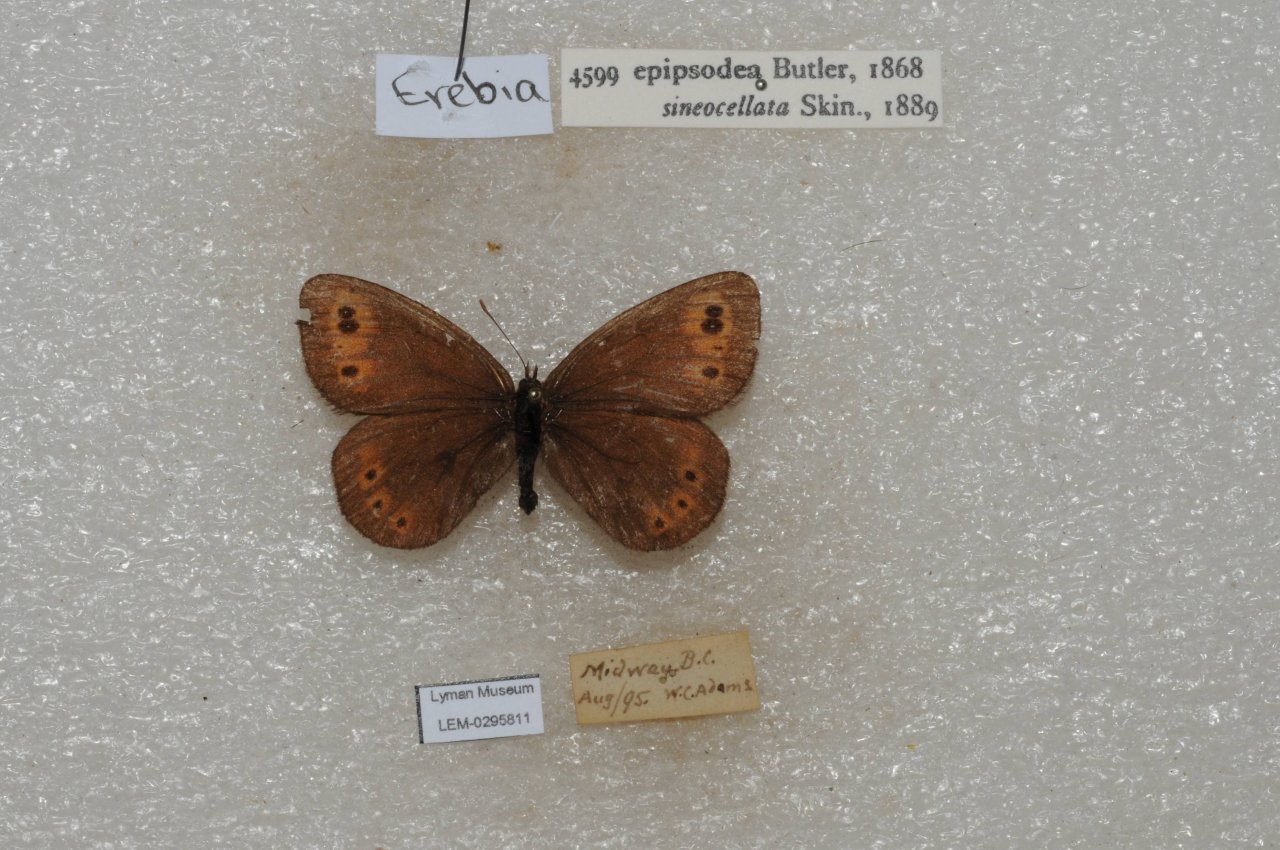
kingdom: Animalia
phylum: Arthropoda
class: Insecta
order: Lepidoptera
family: Nymphalidae
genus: Erebia
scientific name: Erebia epipsodea
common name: Common Alpine
